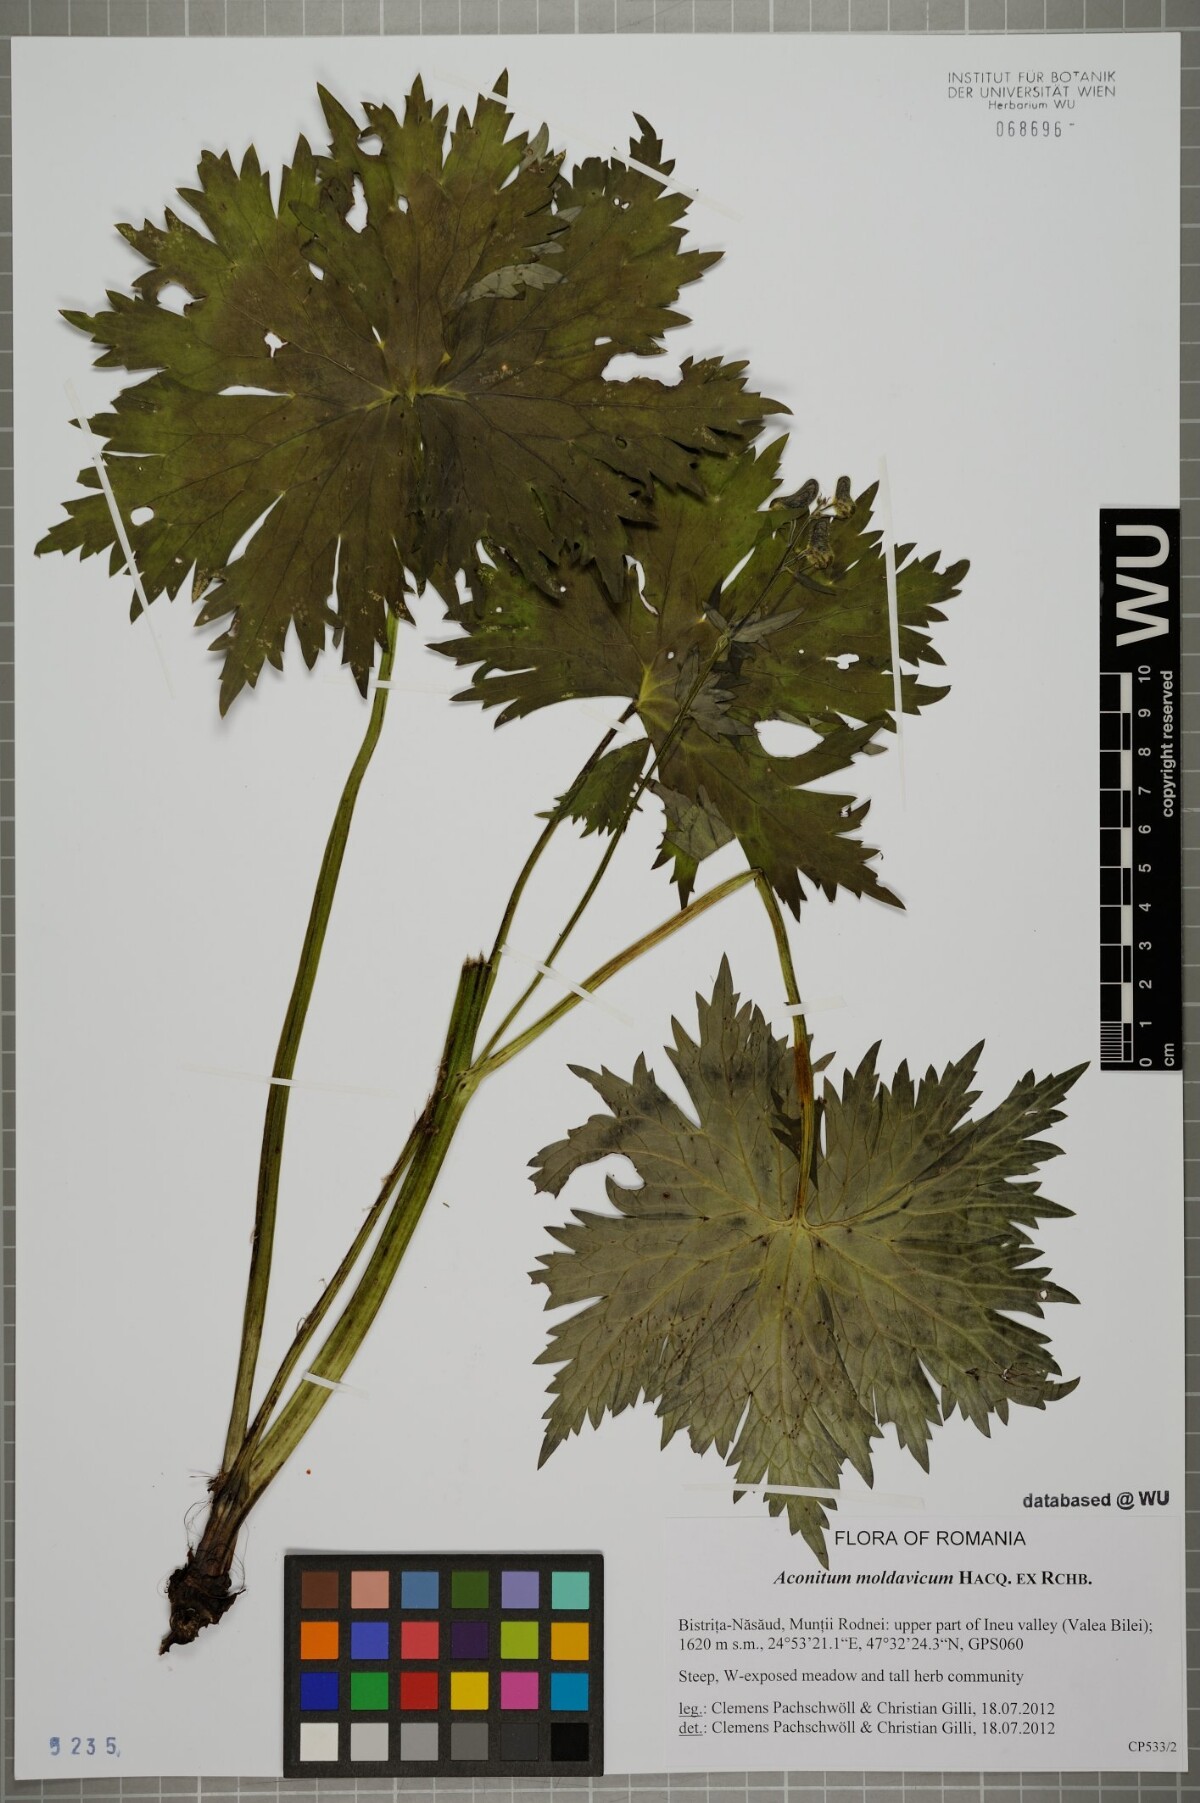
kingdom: Plantae
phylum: Tracheophyta
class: Magnoliopsida
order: Ranunculales
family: Ranunculaceae
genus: Aconitum
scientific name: Aconitum lycoctonum
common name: Wolf's-bane
